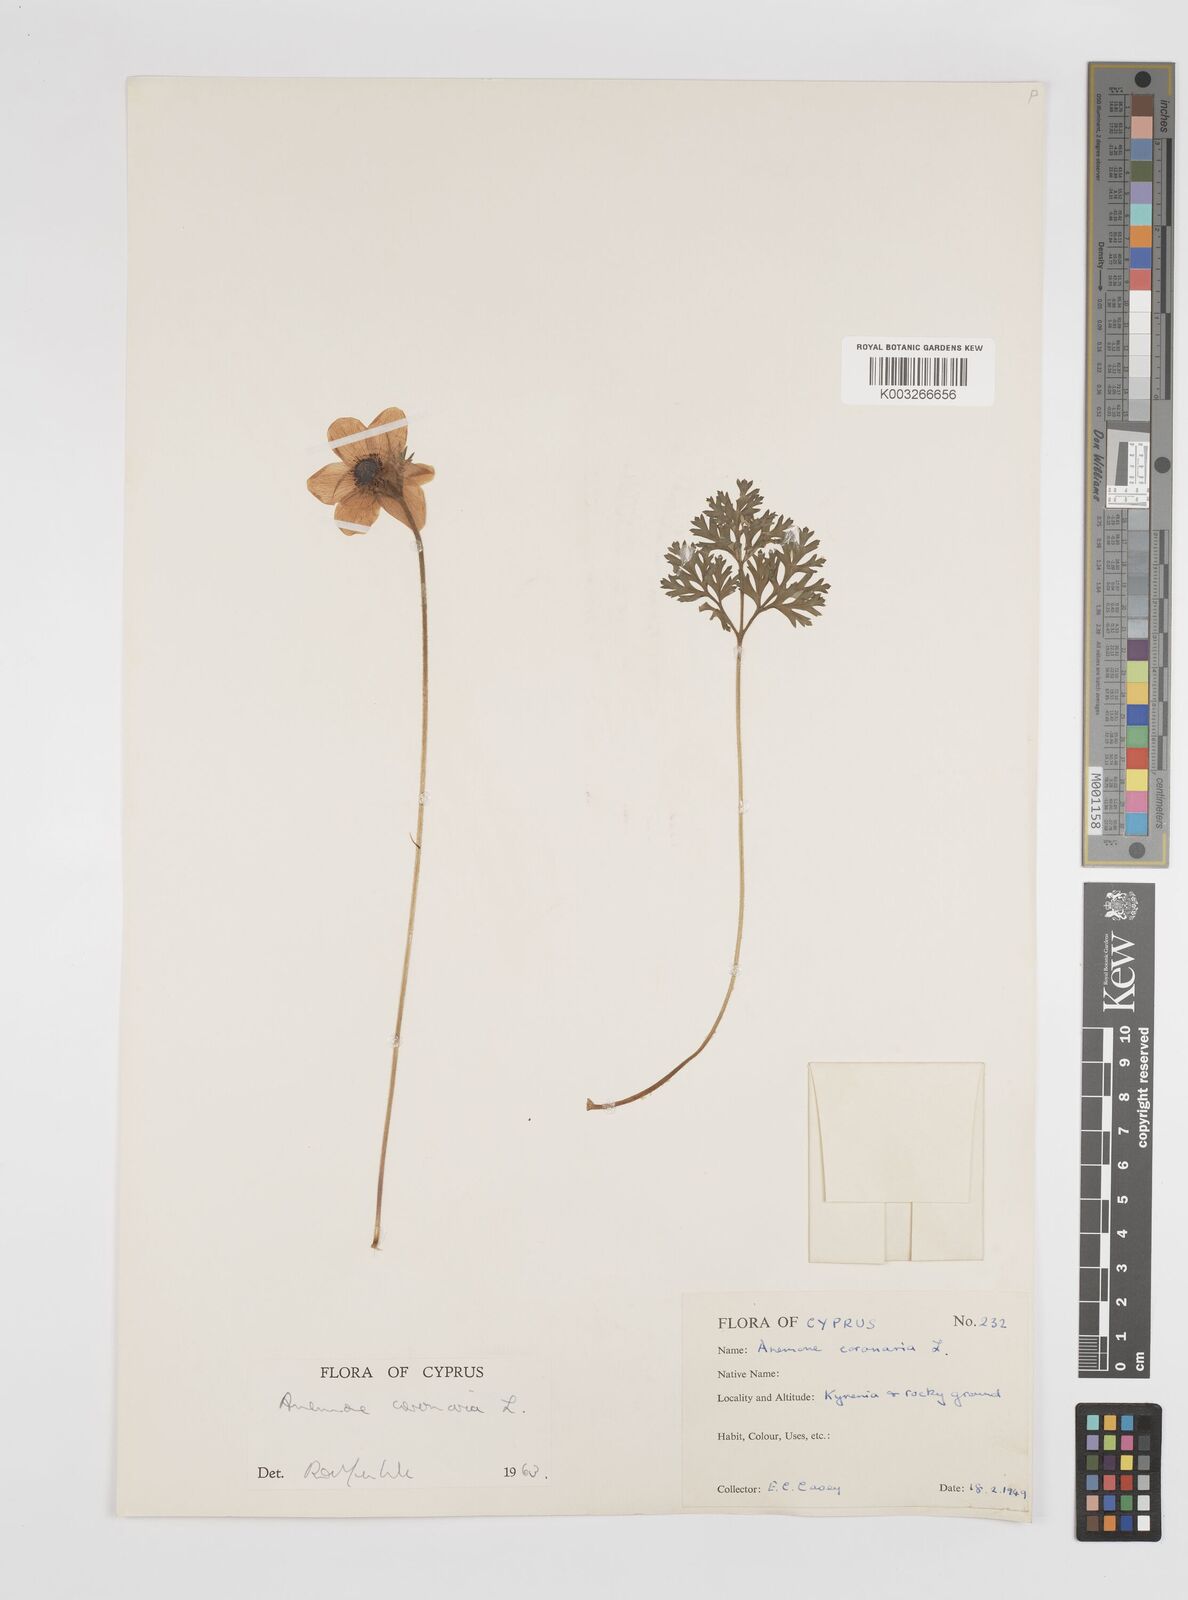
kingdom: Plantae
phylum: Tracheophyta
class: Magnoliopsida
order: Ranunculales
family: Ranunculaceae
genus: Anemone
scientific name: Anemone coronaria
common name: Poppy anemone
